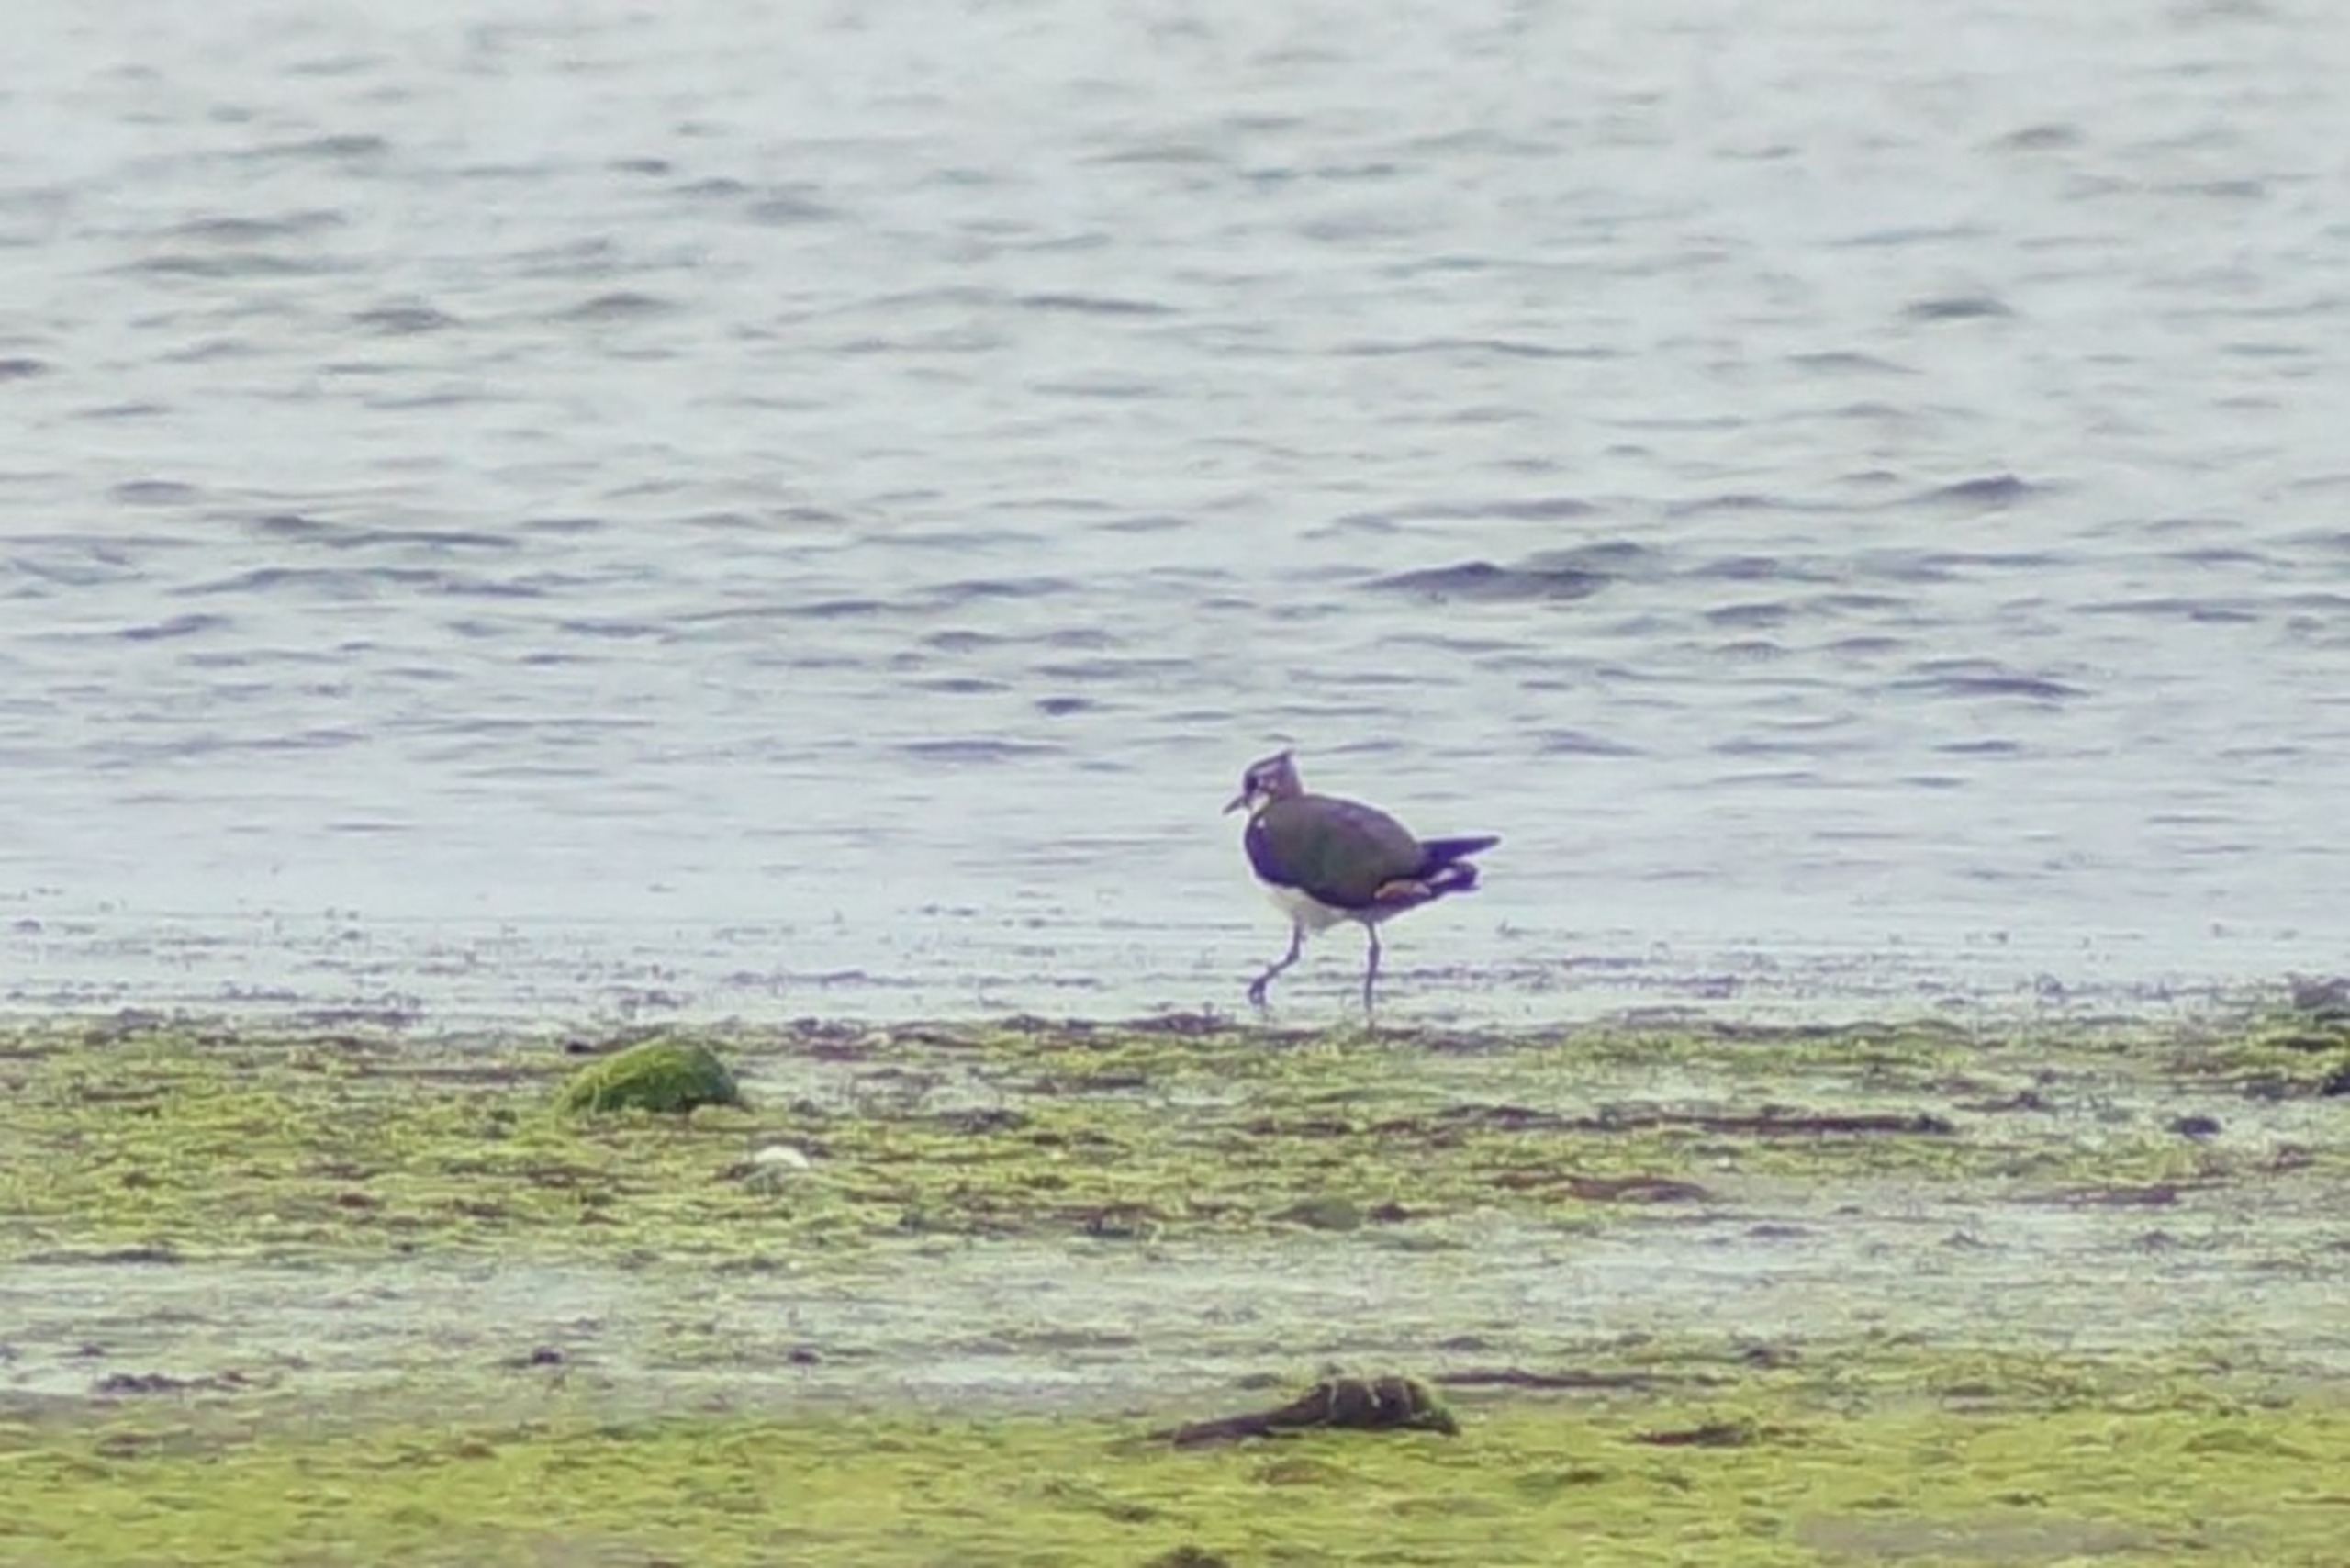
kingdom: Animalia
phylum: Chordata
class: Aves
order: Charadriiformes
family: Charadriidae
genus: Vanellus
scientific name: Vanellus vanellus
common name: Vibe
